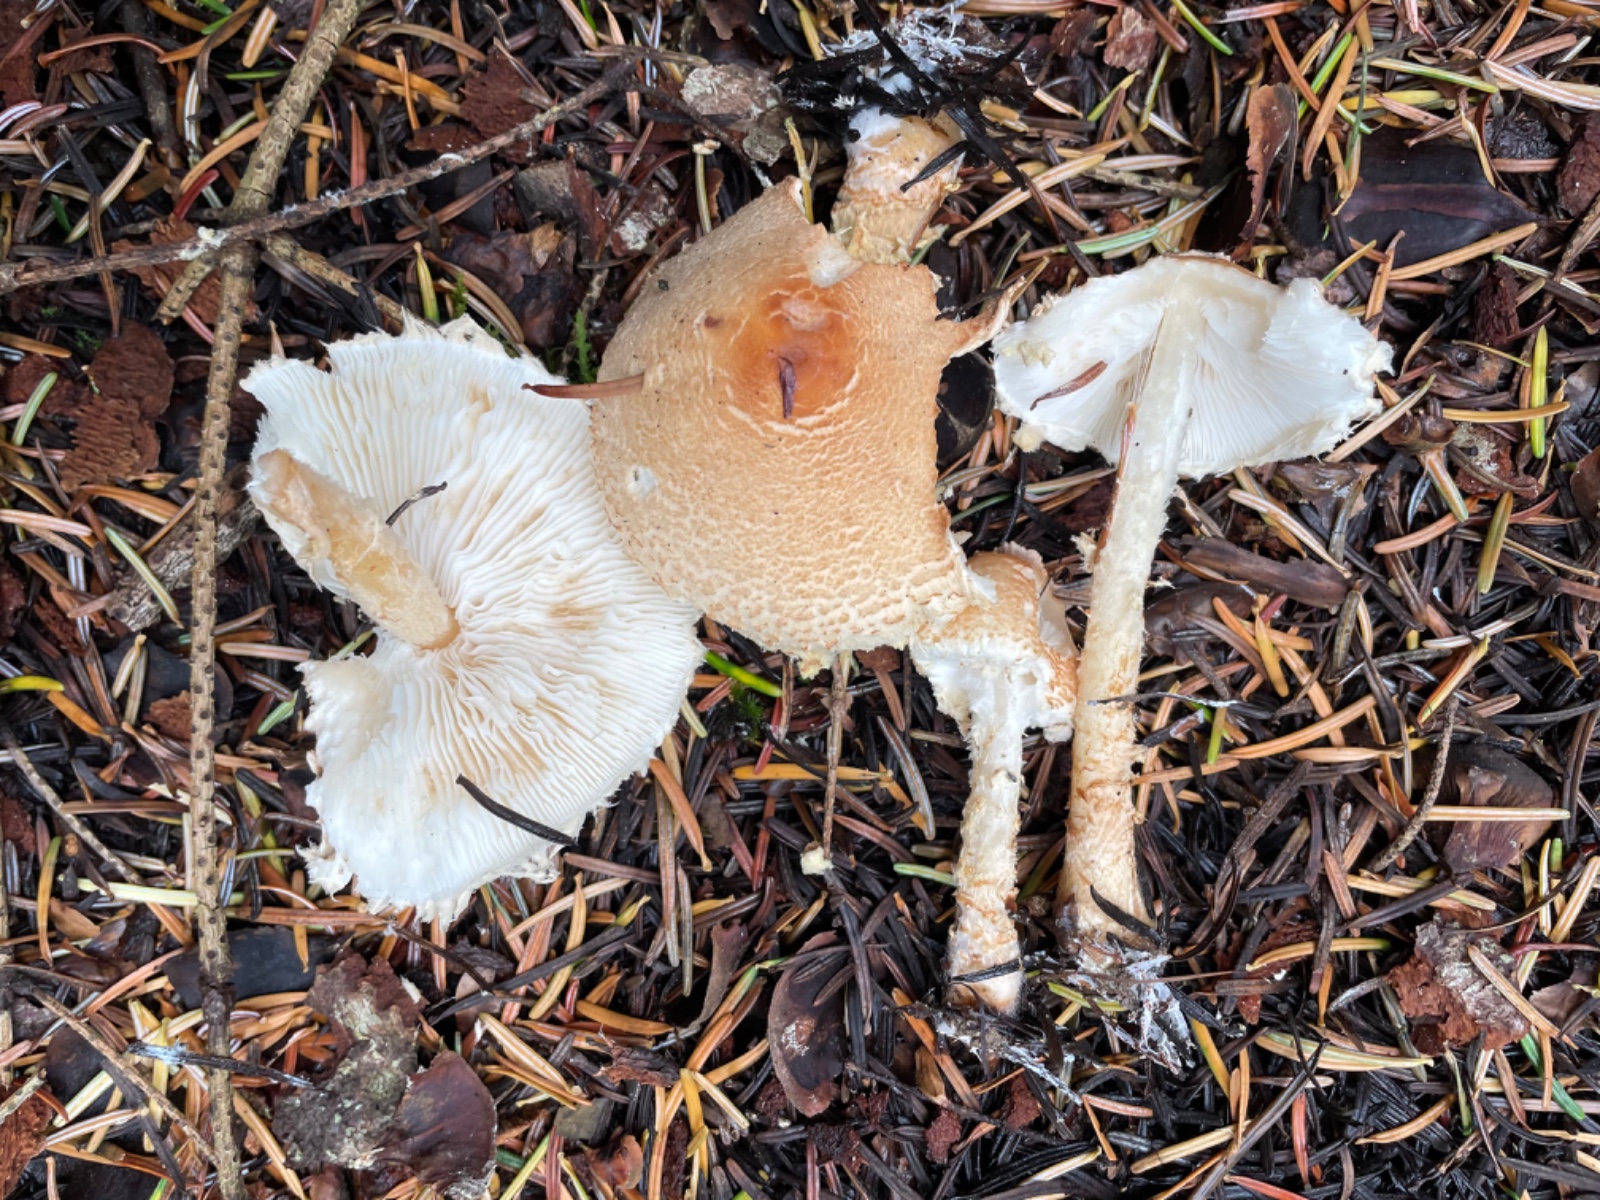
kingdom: Fungi
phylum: Basidiomycota
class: Agaricomycetes
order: Agaricales
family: Agaricaceae
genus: Lepiota
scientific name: Lepiota magnispora
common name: gulfnugget parasolhat
